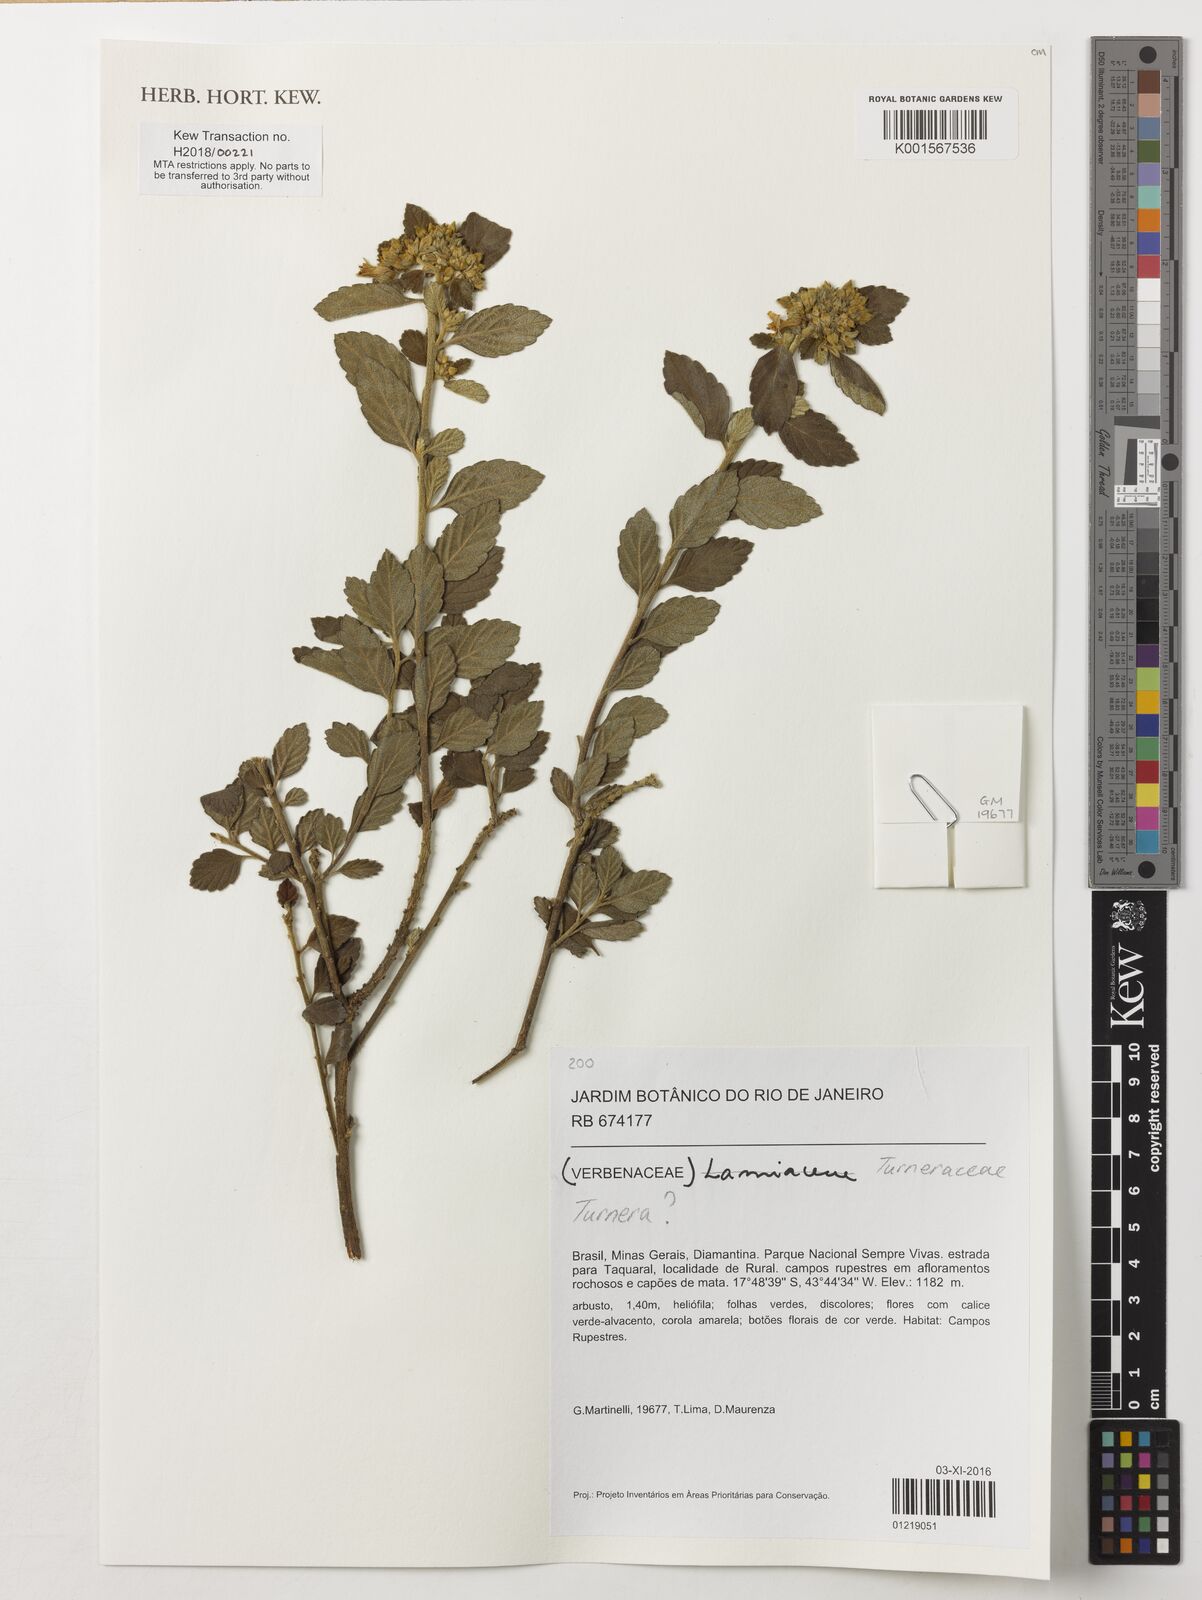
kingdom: Plantae
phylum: Tracheophyta
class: Magnoliopsida
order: Malpighiales
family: Turneraceae
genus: Turnera
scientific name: Turnera
